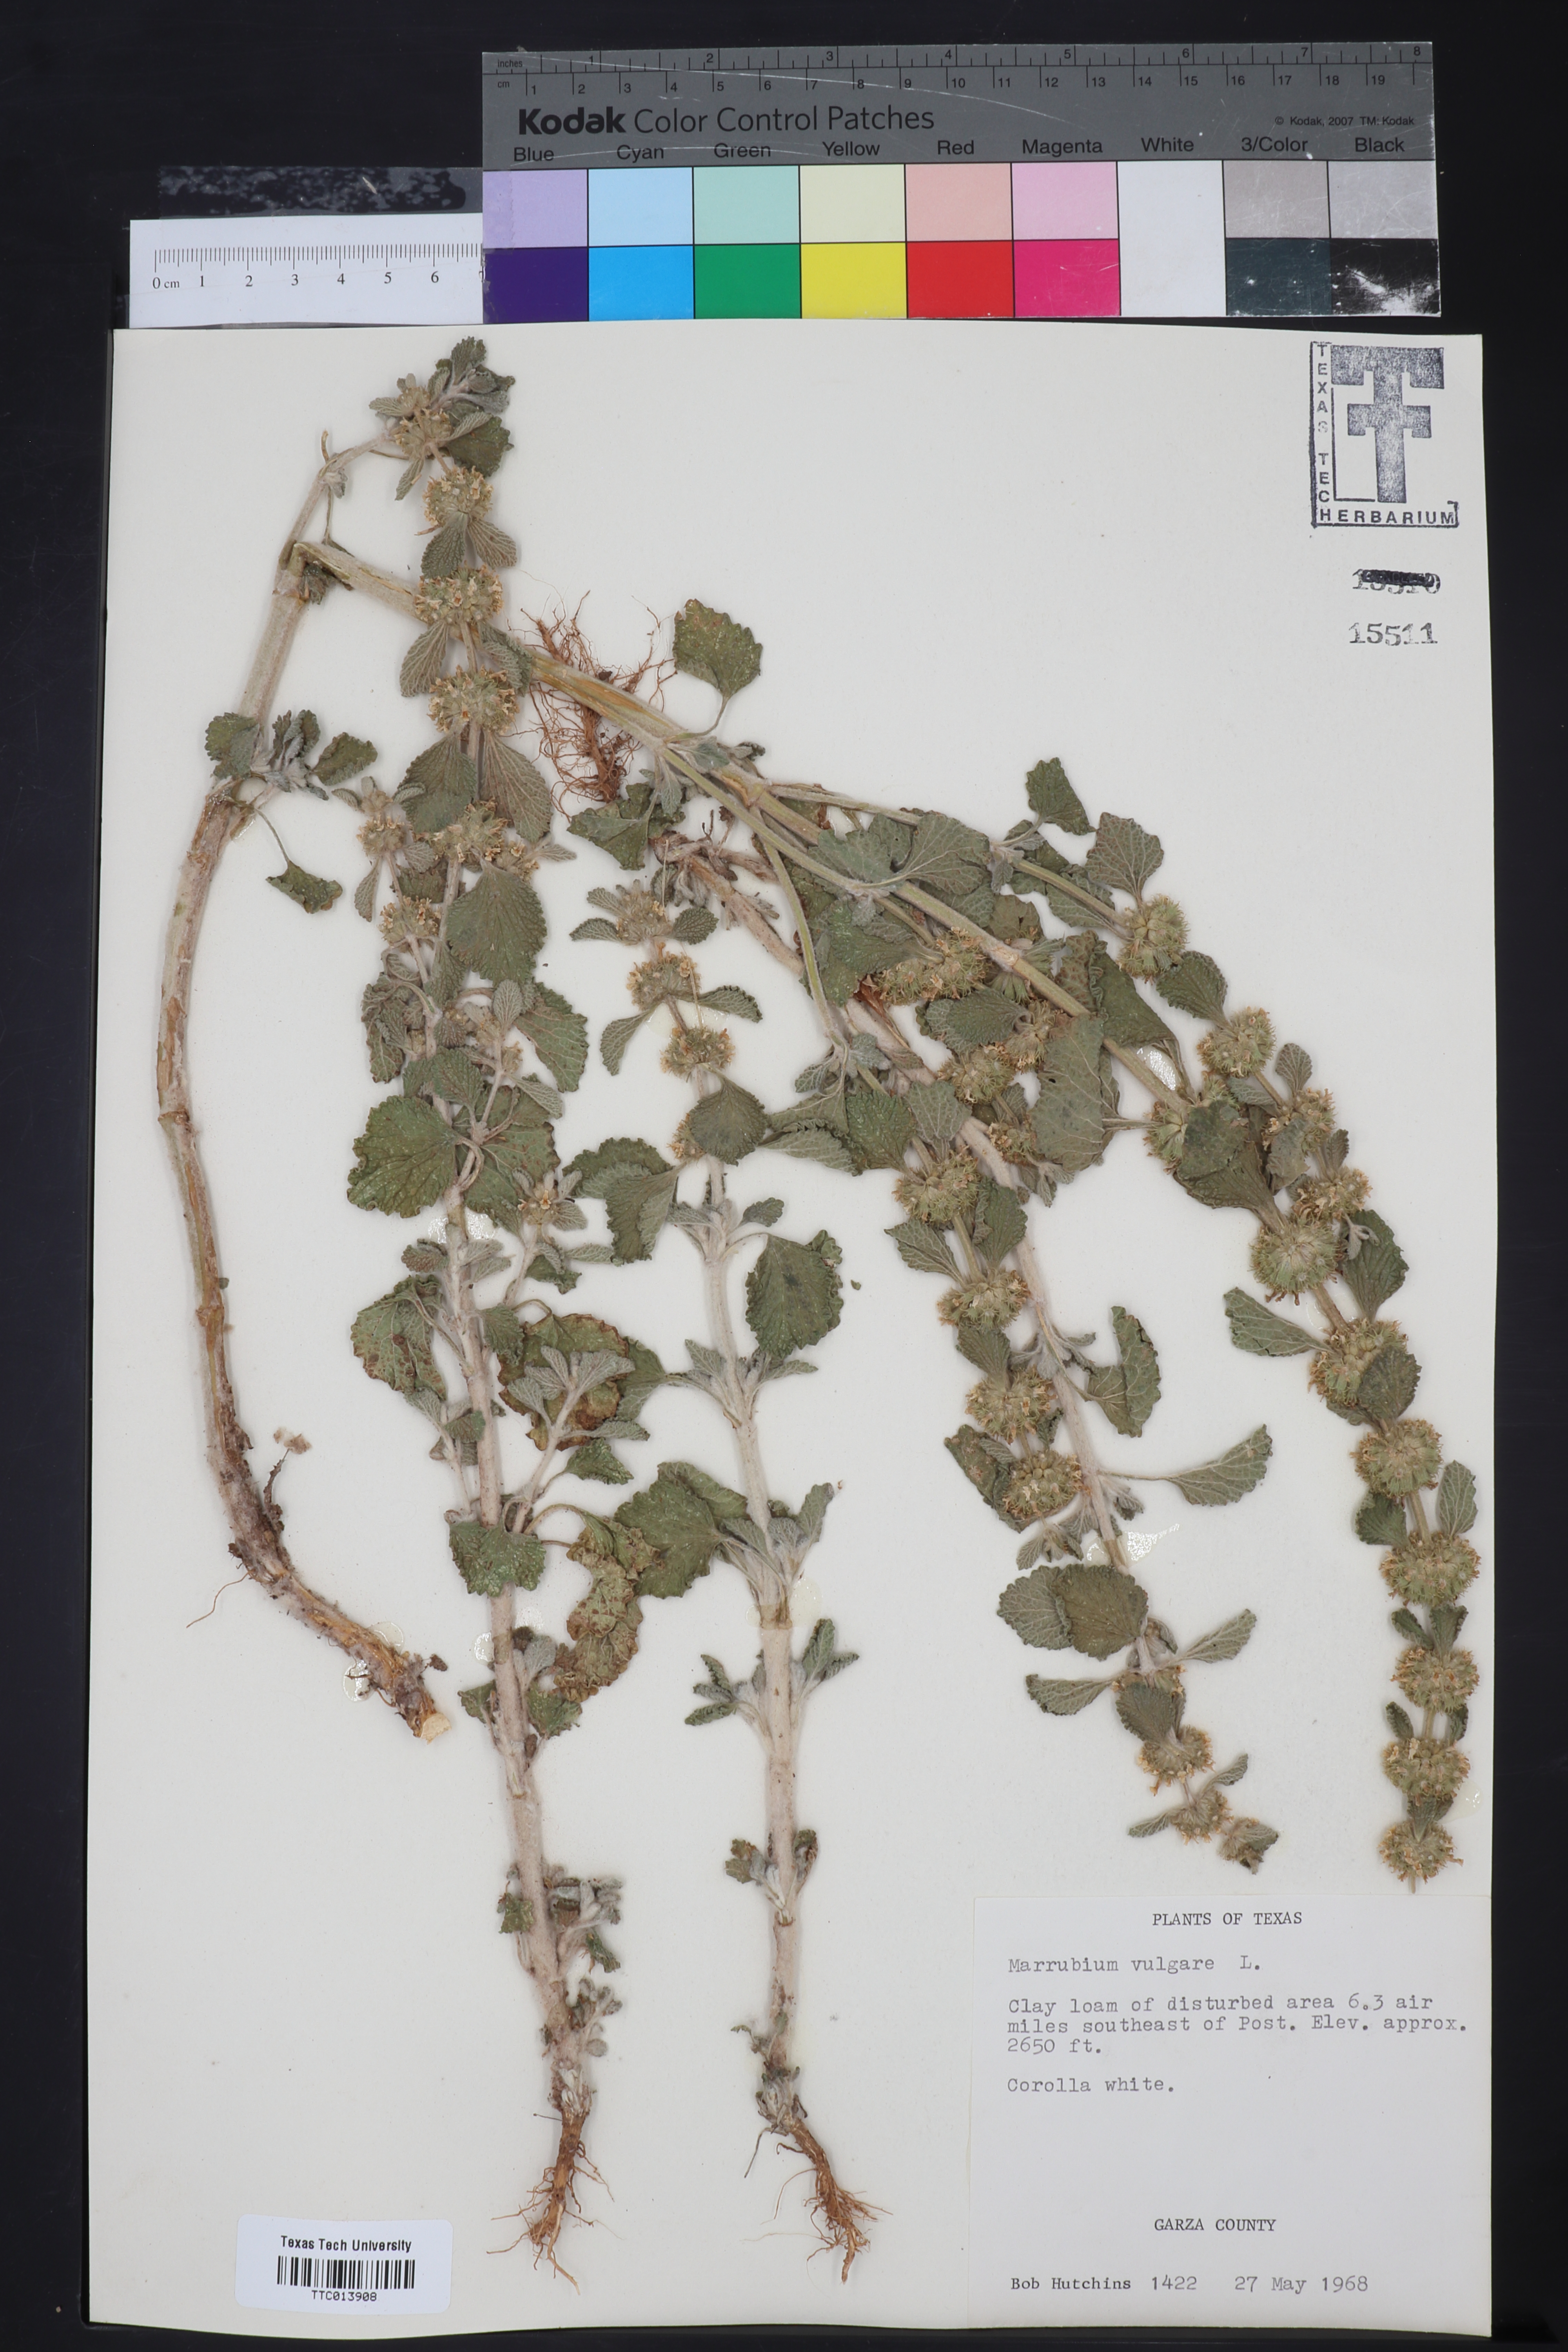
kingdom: Plantae
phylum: Tracheophyta
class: Magnoliopsida
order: Lamiales
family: Lamiaceae
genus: Marrubium
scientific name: Marrubium vulgare
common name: Horehound
